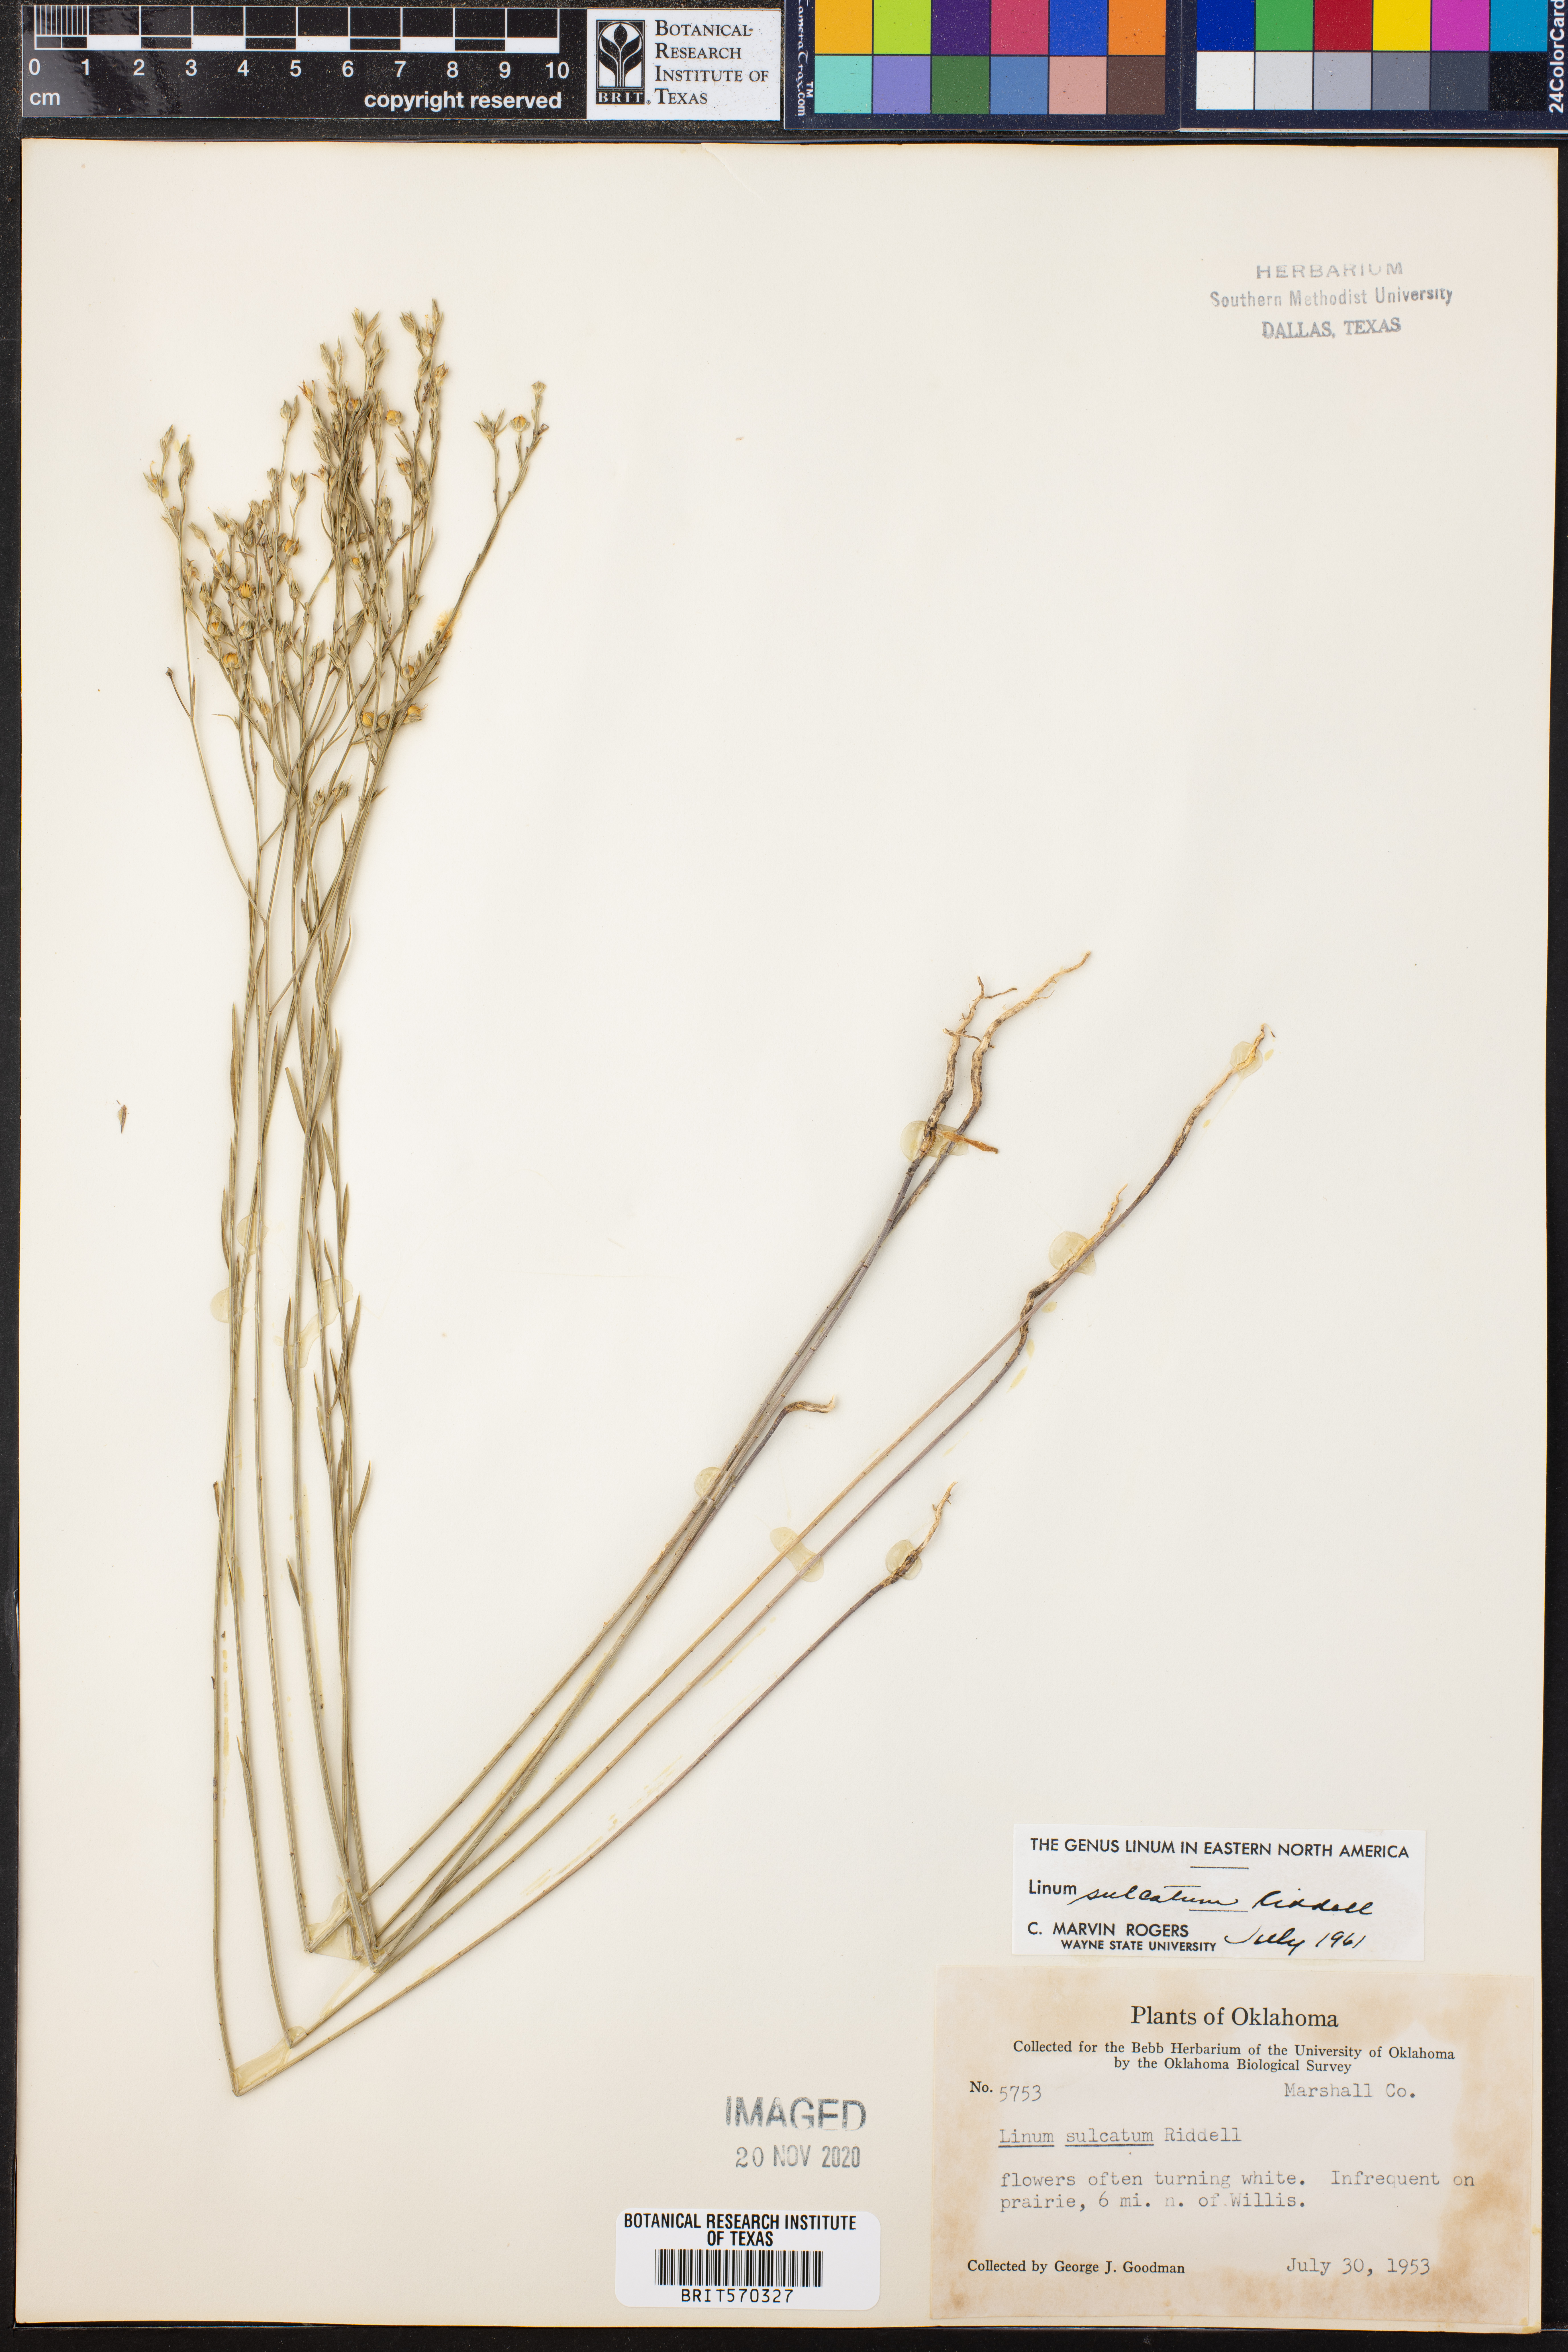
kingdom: Plantae
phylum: Tracheophyta
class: Magnoliopsida
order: Malpighiales
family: Linaceae
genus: Linum
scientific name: Linum sulcatum
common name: Grooved flax
